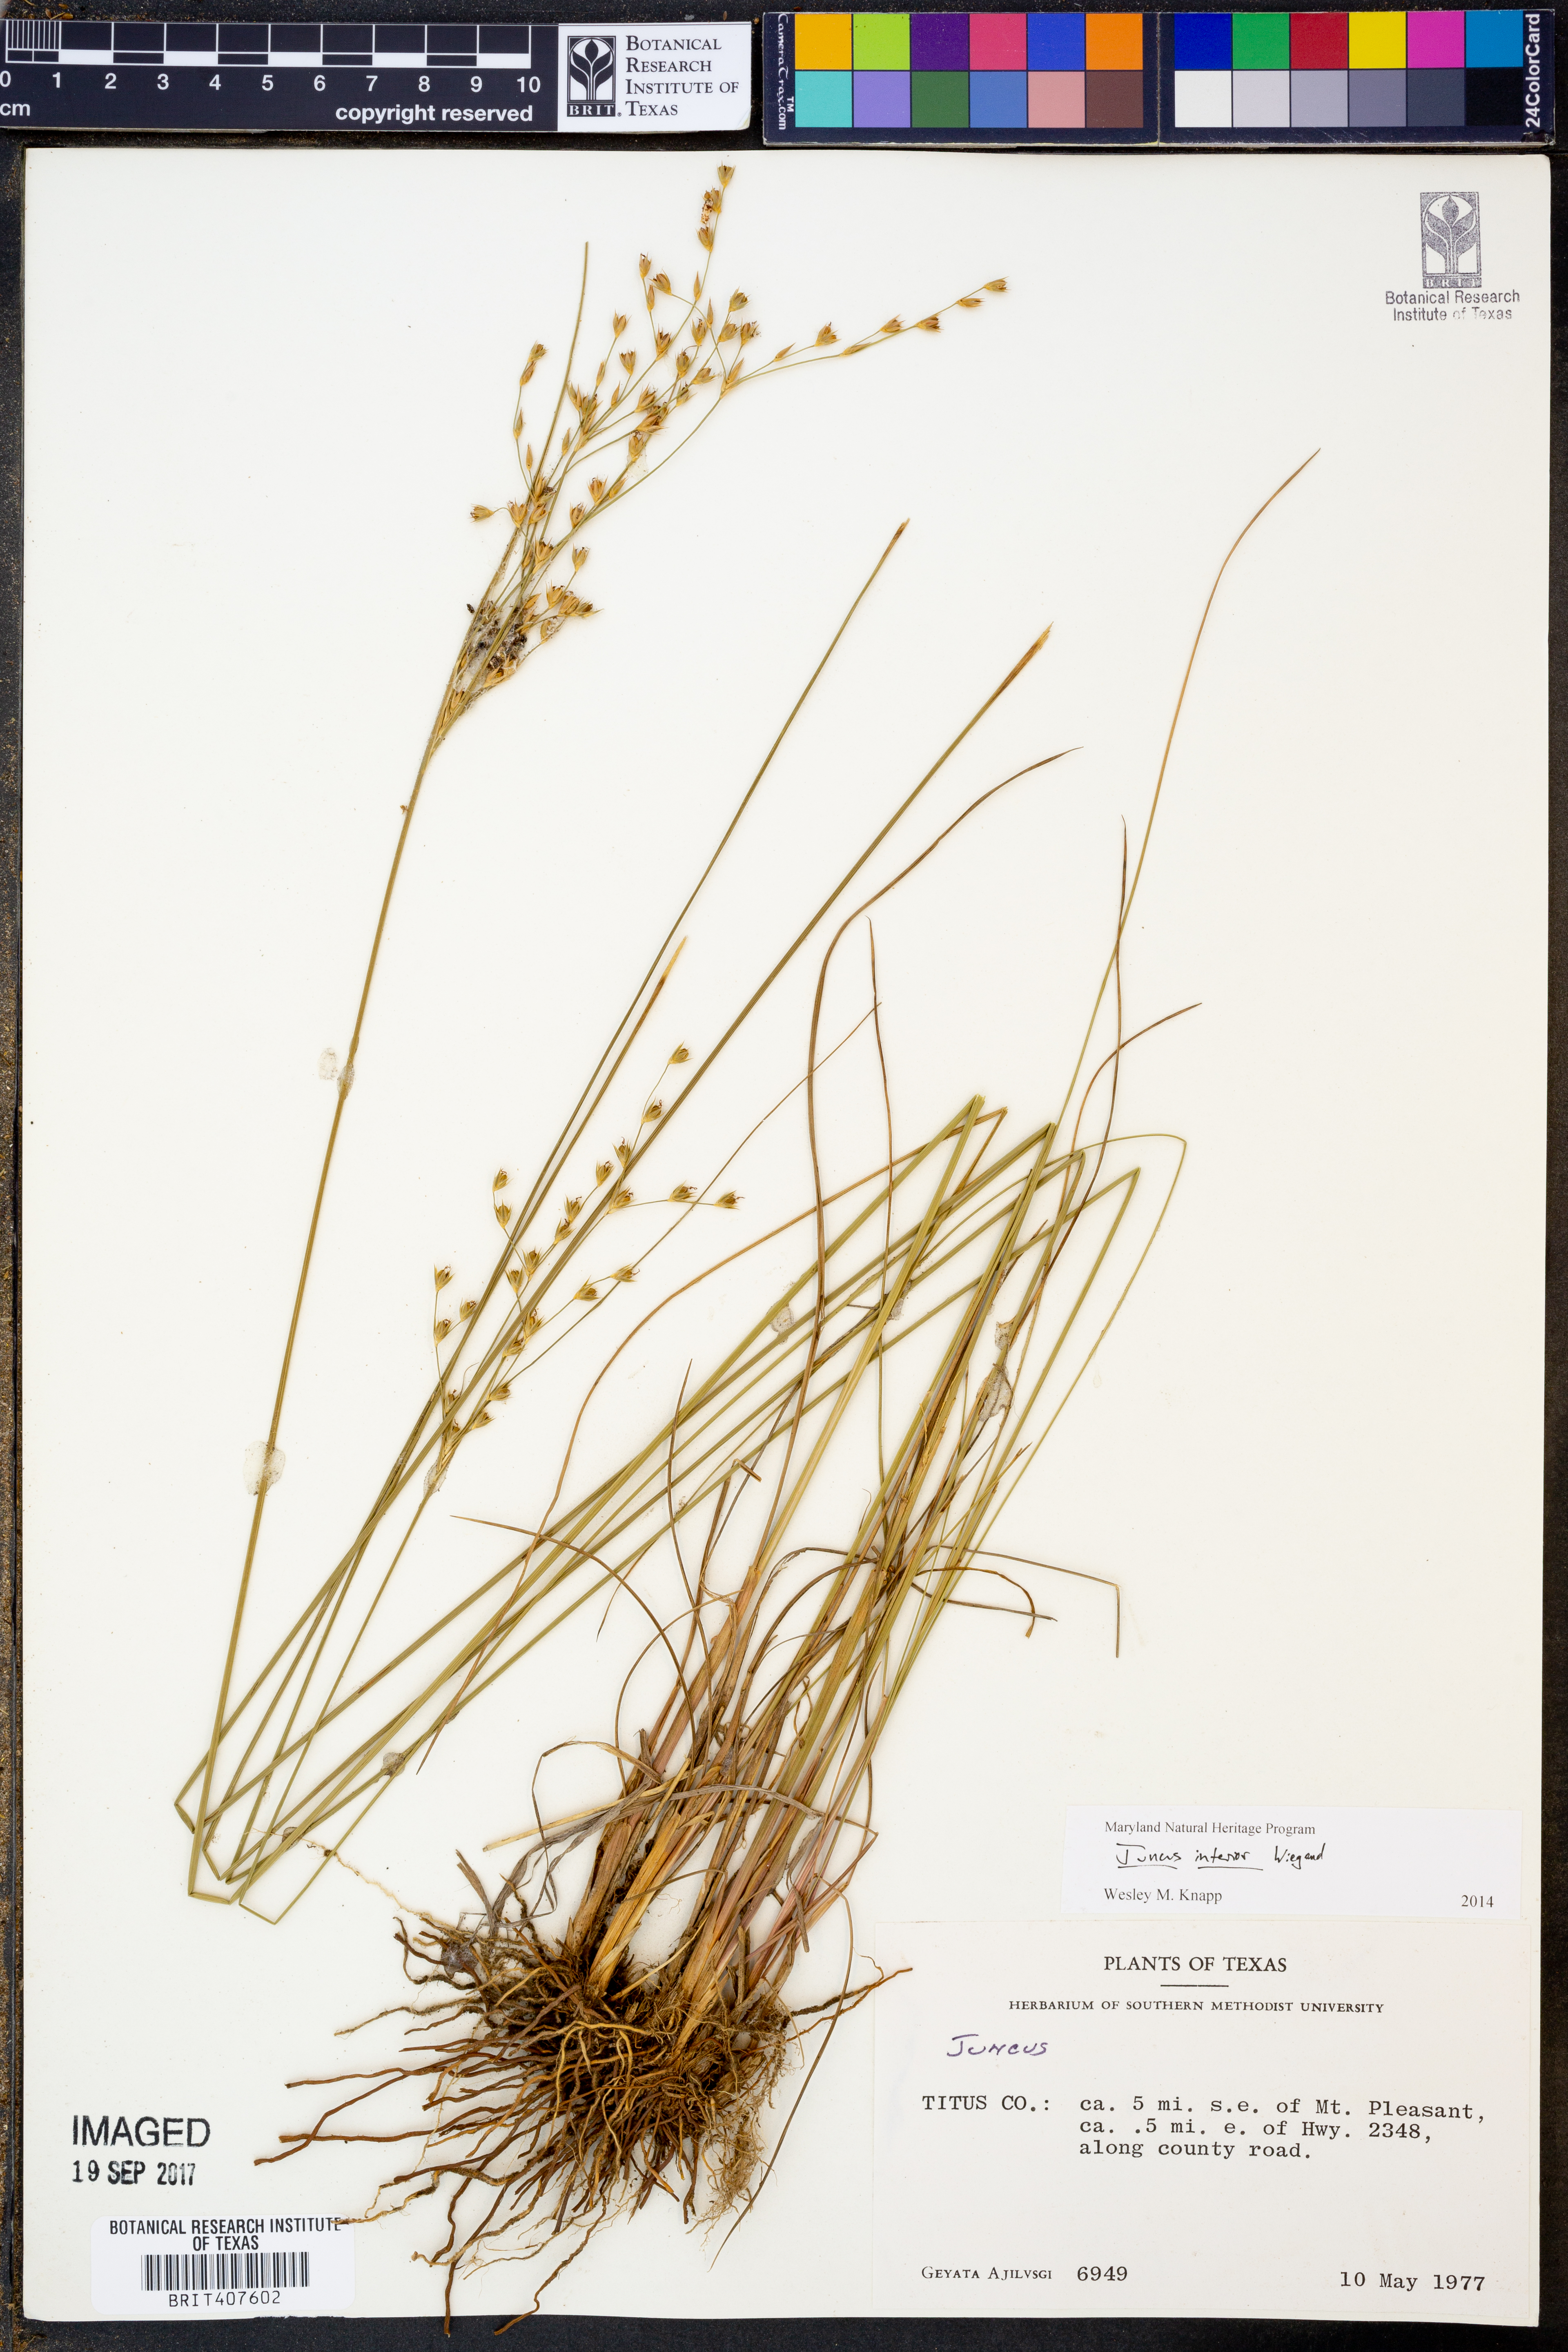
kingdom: Plantae
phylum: Tracheophyta
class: Liliopsida
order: Poales
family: Juncaceae
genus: Juncus
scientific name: Juncus interior
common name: Interior rush
